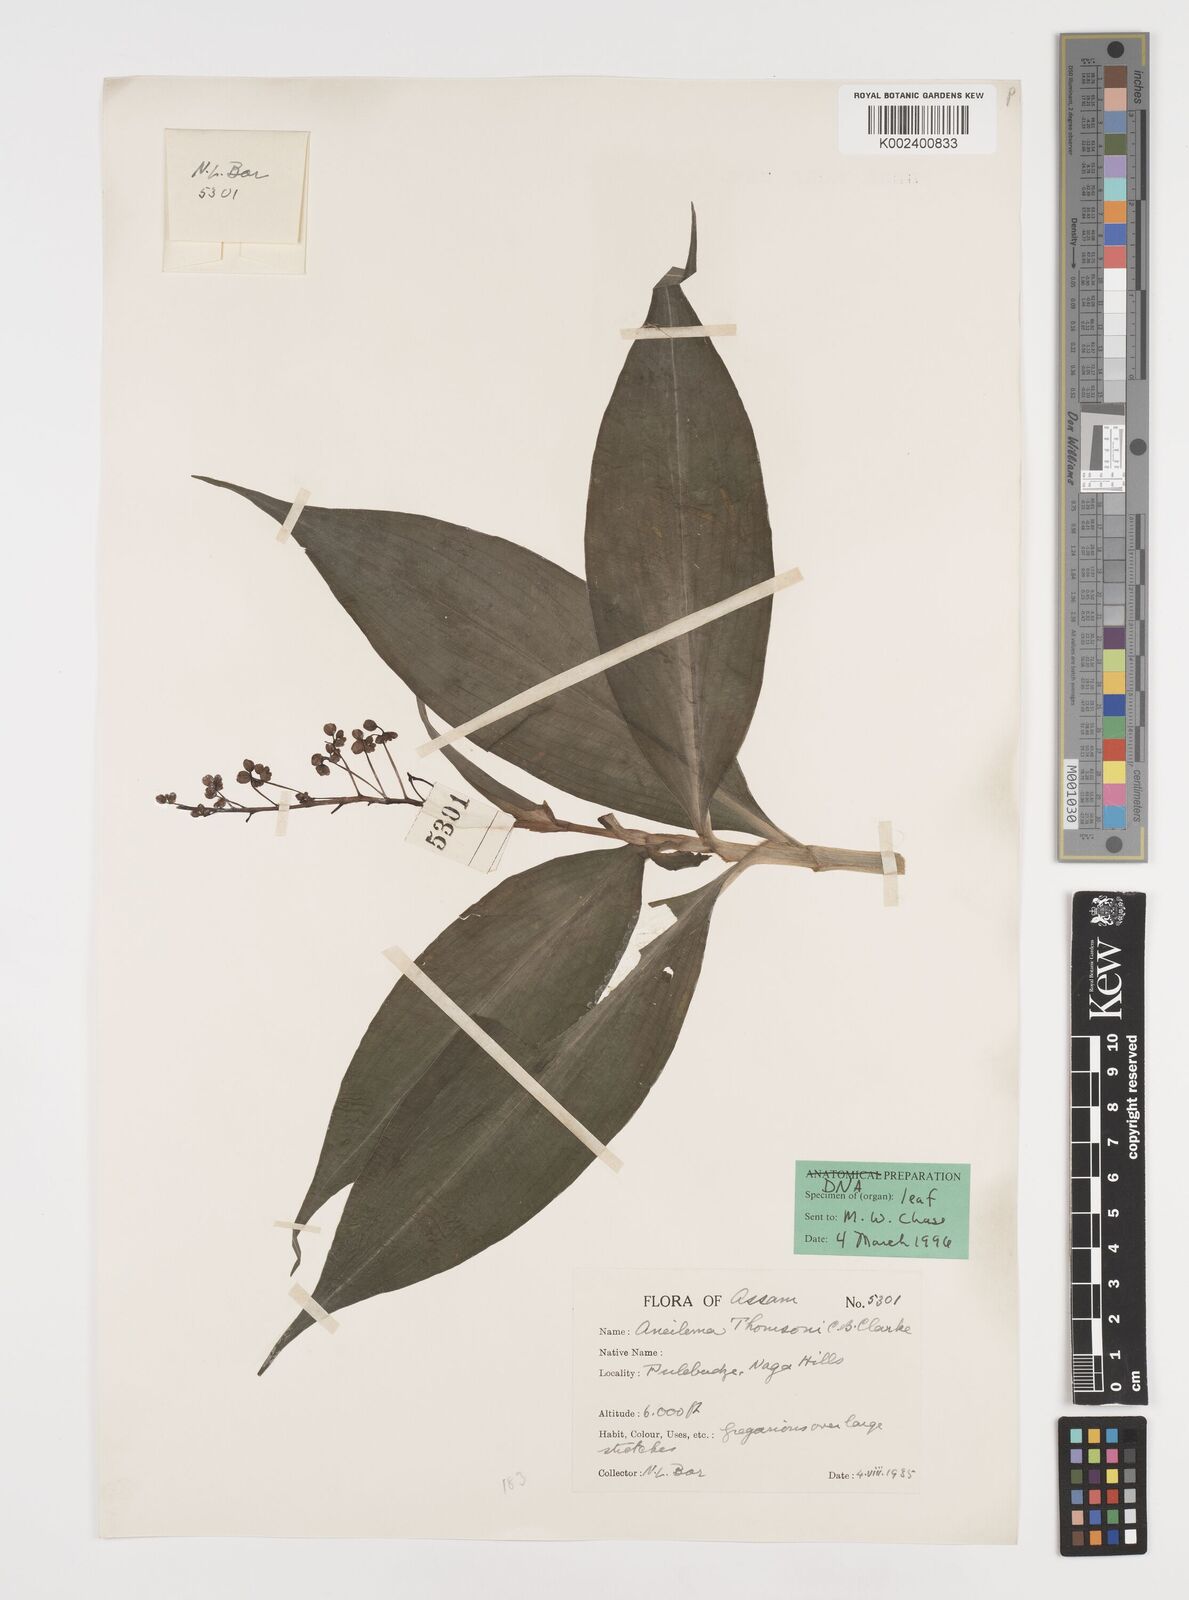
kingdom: Plantae
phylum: Tracheophyta
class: Liliopsida
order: Commelinales
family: Commelinaceae
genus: Tricarpelema
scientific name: Tricarpelema giganteum
